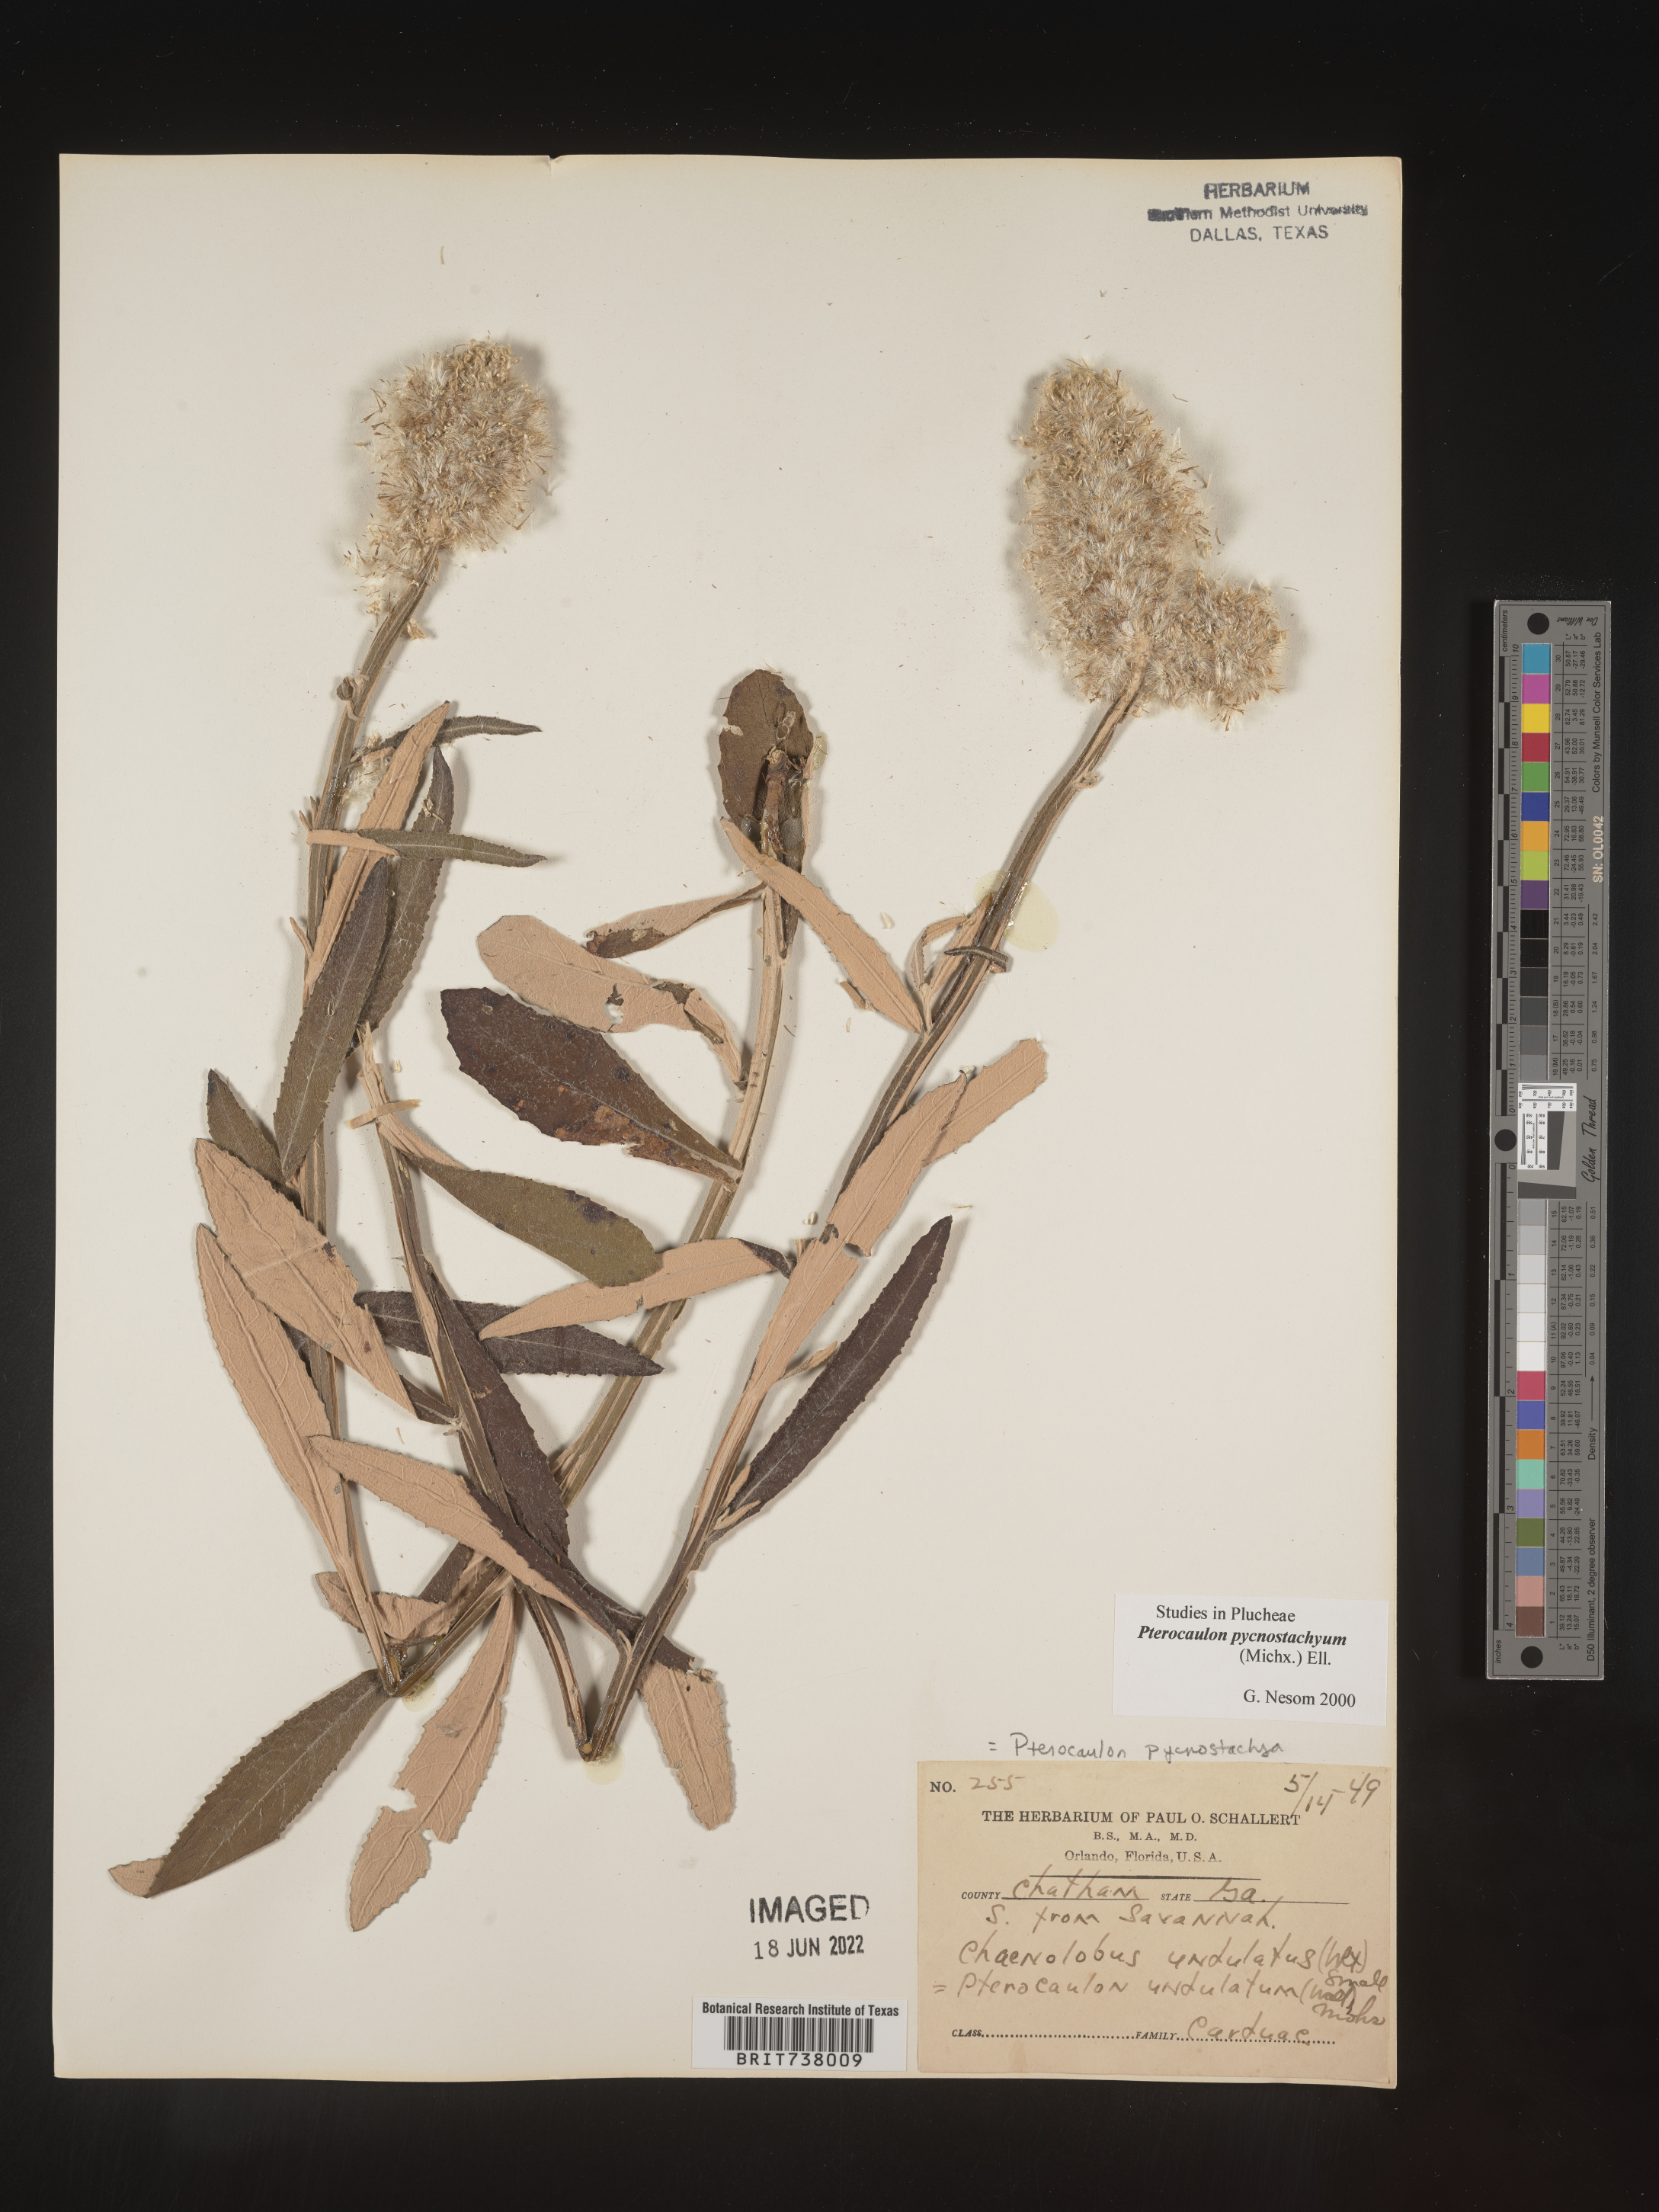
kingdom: Plantae
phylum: Tracheophyta
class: Magnoliopsida
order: Asterales
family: Asteraceae
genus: Pterocaulon
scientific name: Pterocaulon pycnostachyum
